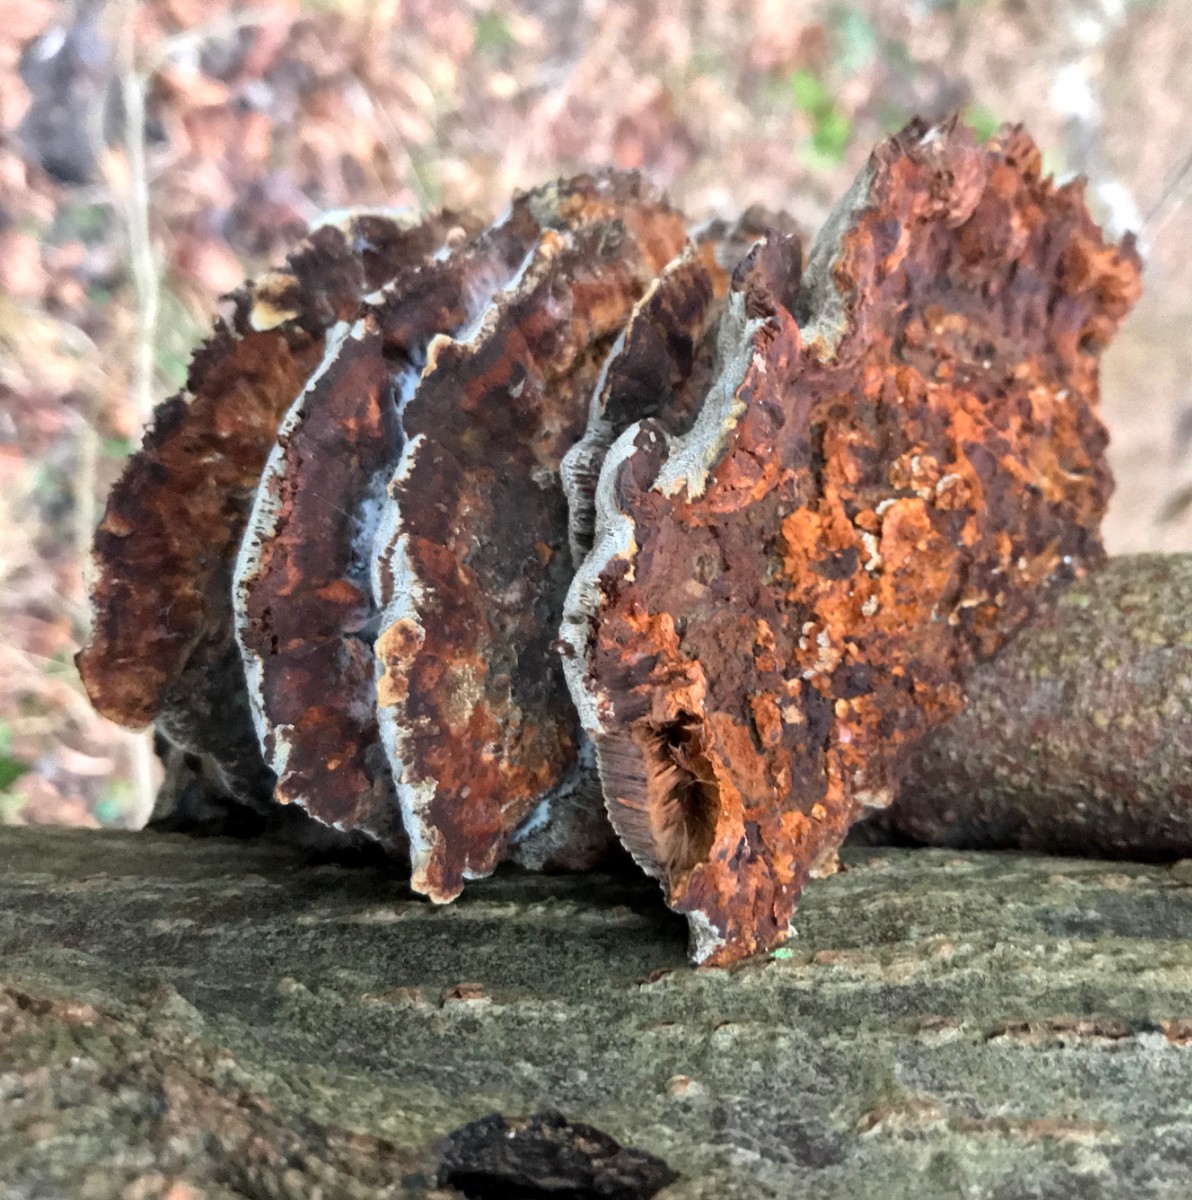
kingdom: Fungi
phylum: Basidiomycota
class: Agaricomycetes
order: Hymenochaetales
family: Hymenochaetaceae
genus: Xanthoporia
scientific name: Xanthoporia radiata
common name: elle-spejlporesvamp
